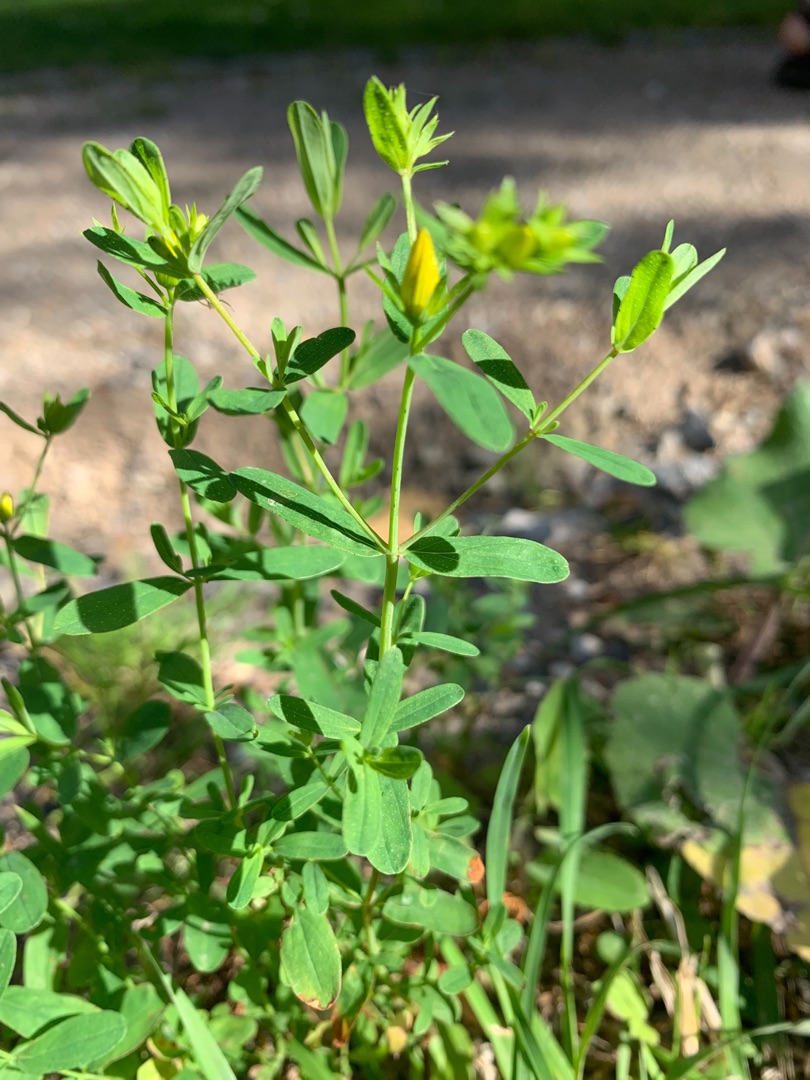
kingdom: Plantae
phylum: Tracheophyta
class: Magnoliopsida
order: Malpighiales
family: Hypericaceae
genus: Hypericum
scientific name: Hypericum perforatum
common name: Prikbladet perikon
